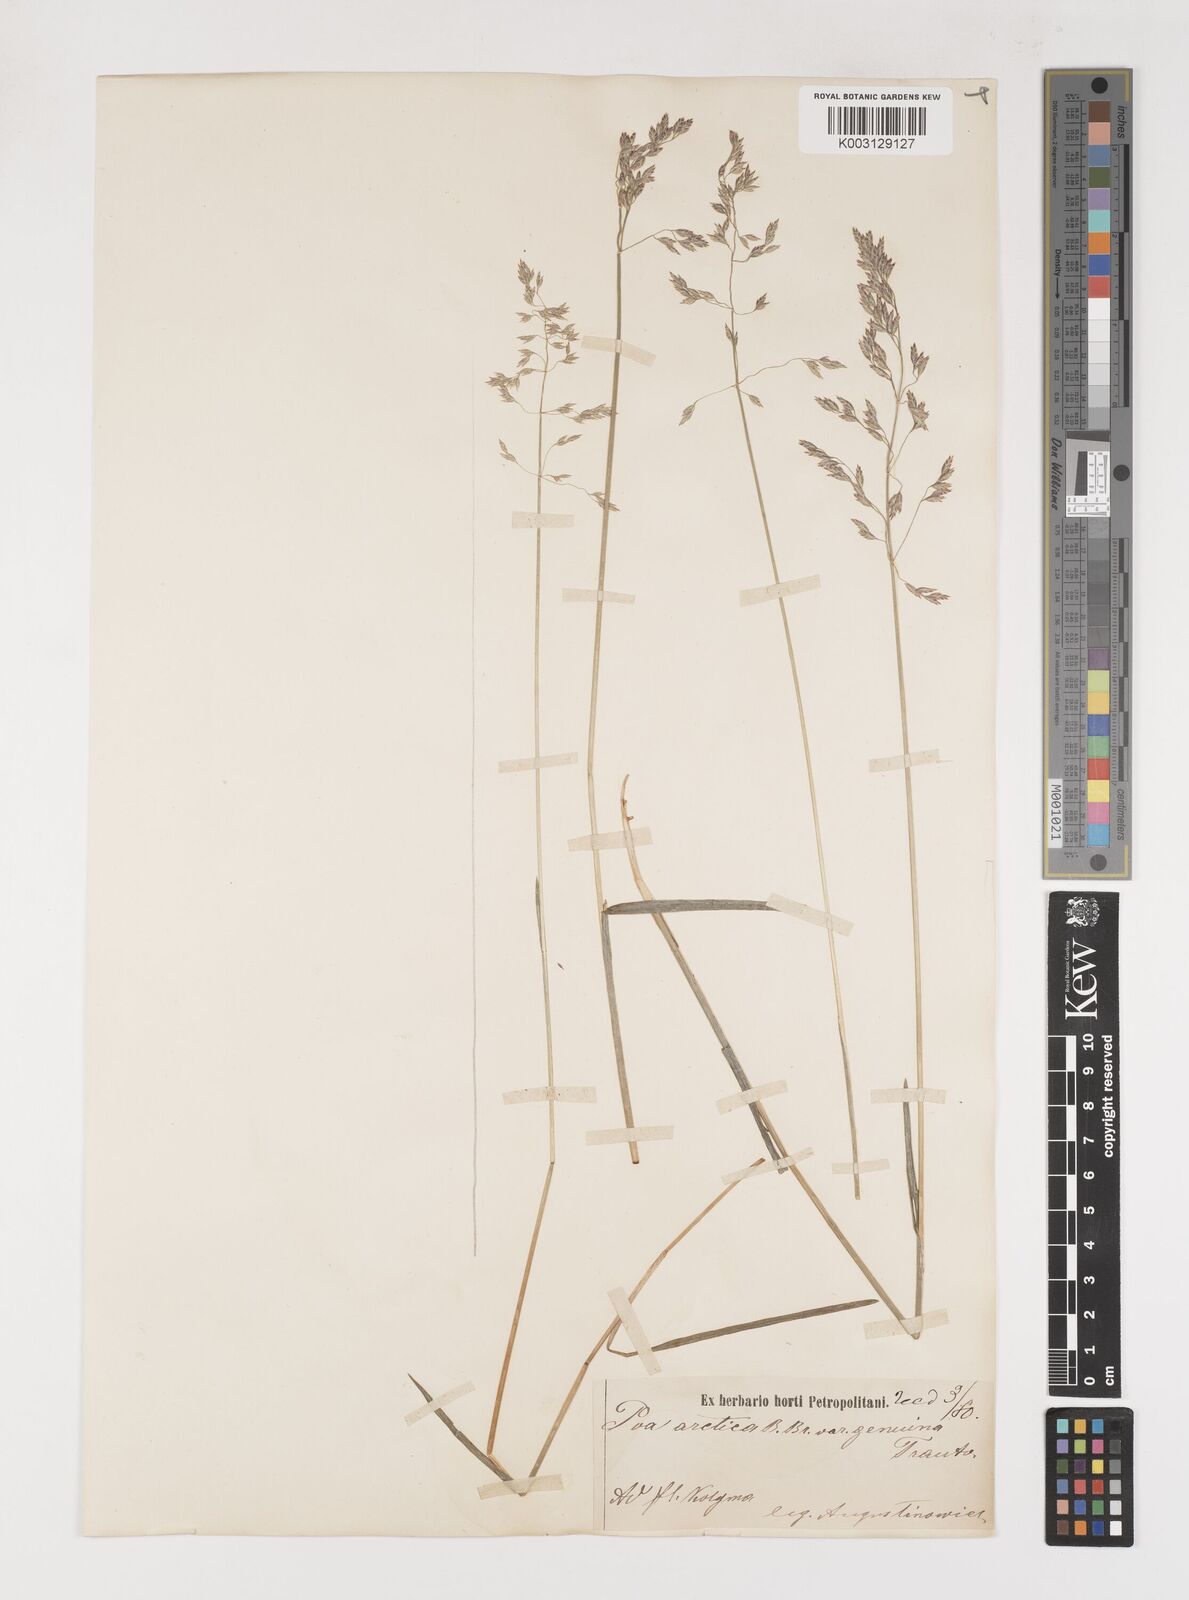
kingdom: Plantae
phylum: Tracheophyta
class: Liliopsida
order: Poales
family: Poaceae
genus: Poa
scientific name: Poa arctica
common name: Arctic bluegrass
